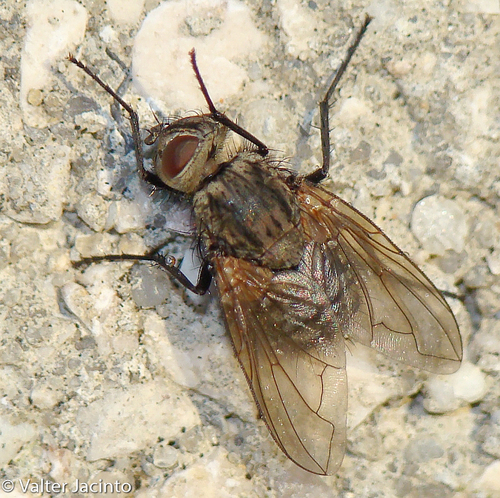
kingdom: Animalia
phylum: Arthropoda
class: Insecta
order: Diptera
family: Polleniidae
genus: Pollenia
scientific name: Pollenia stigi
